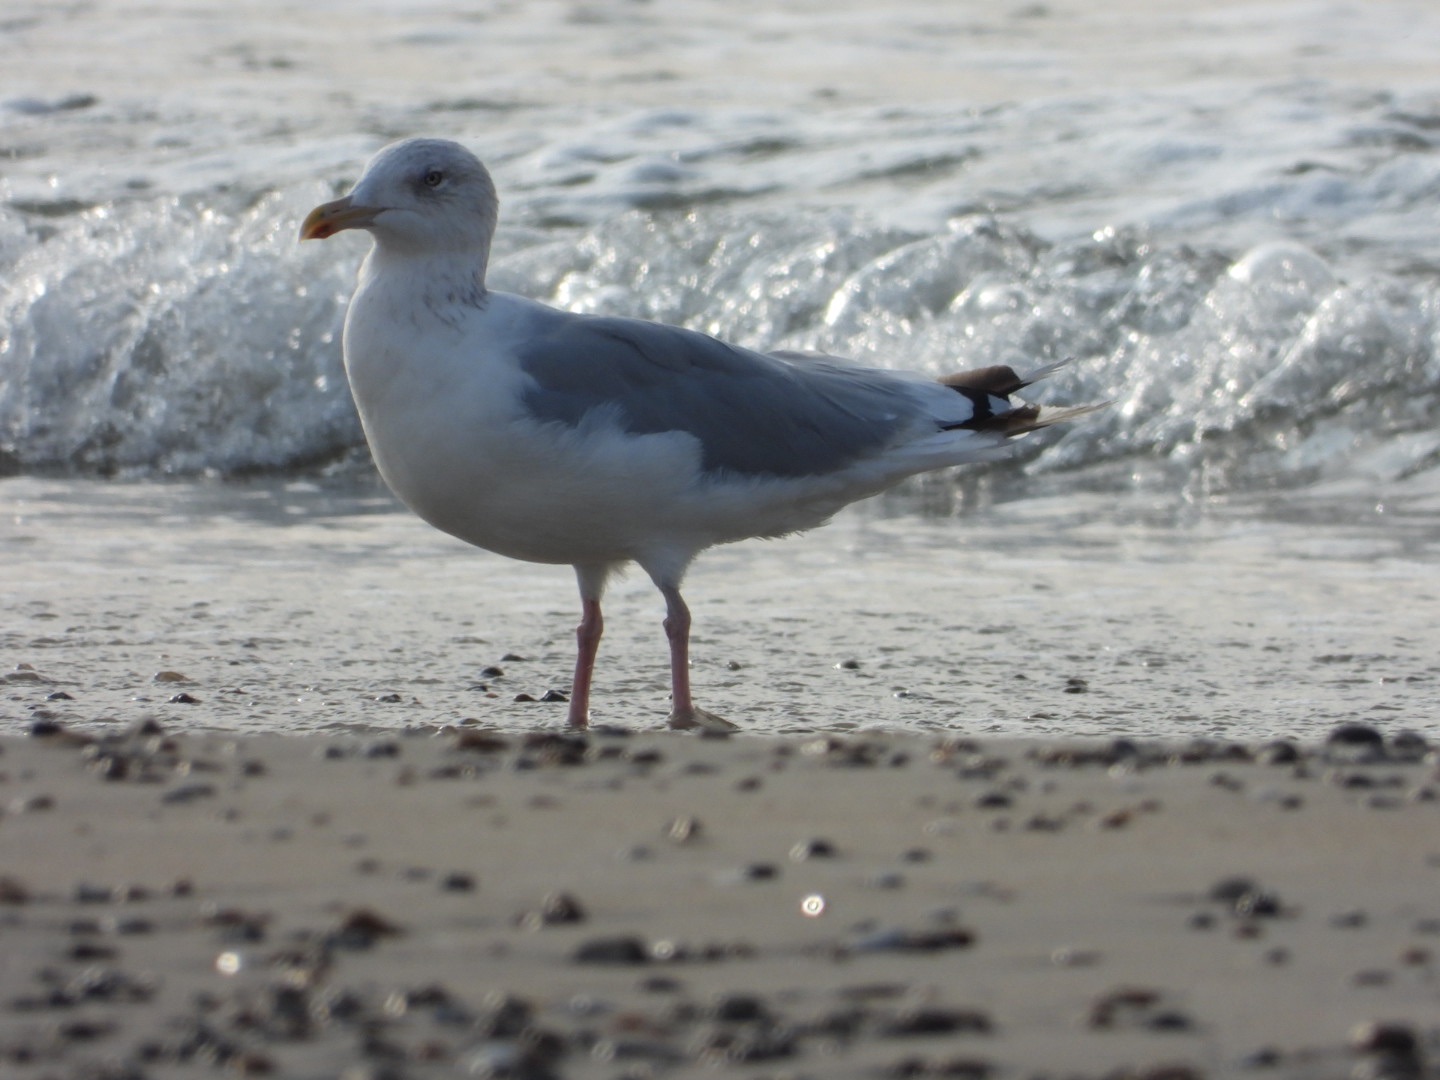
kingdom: Animalia
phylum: Chordata
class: Aves
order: Charadriiformes
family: Laridae
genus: Larus
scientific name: Larus argentatus
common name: Sølvmåge
